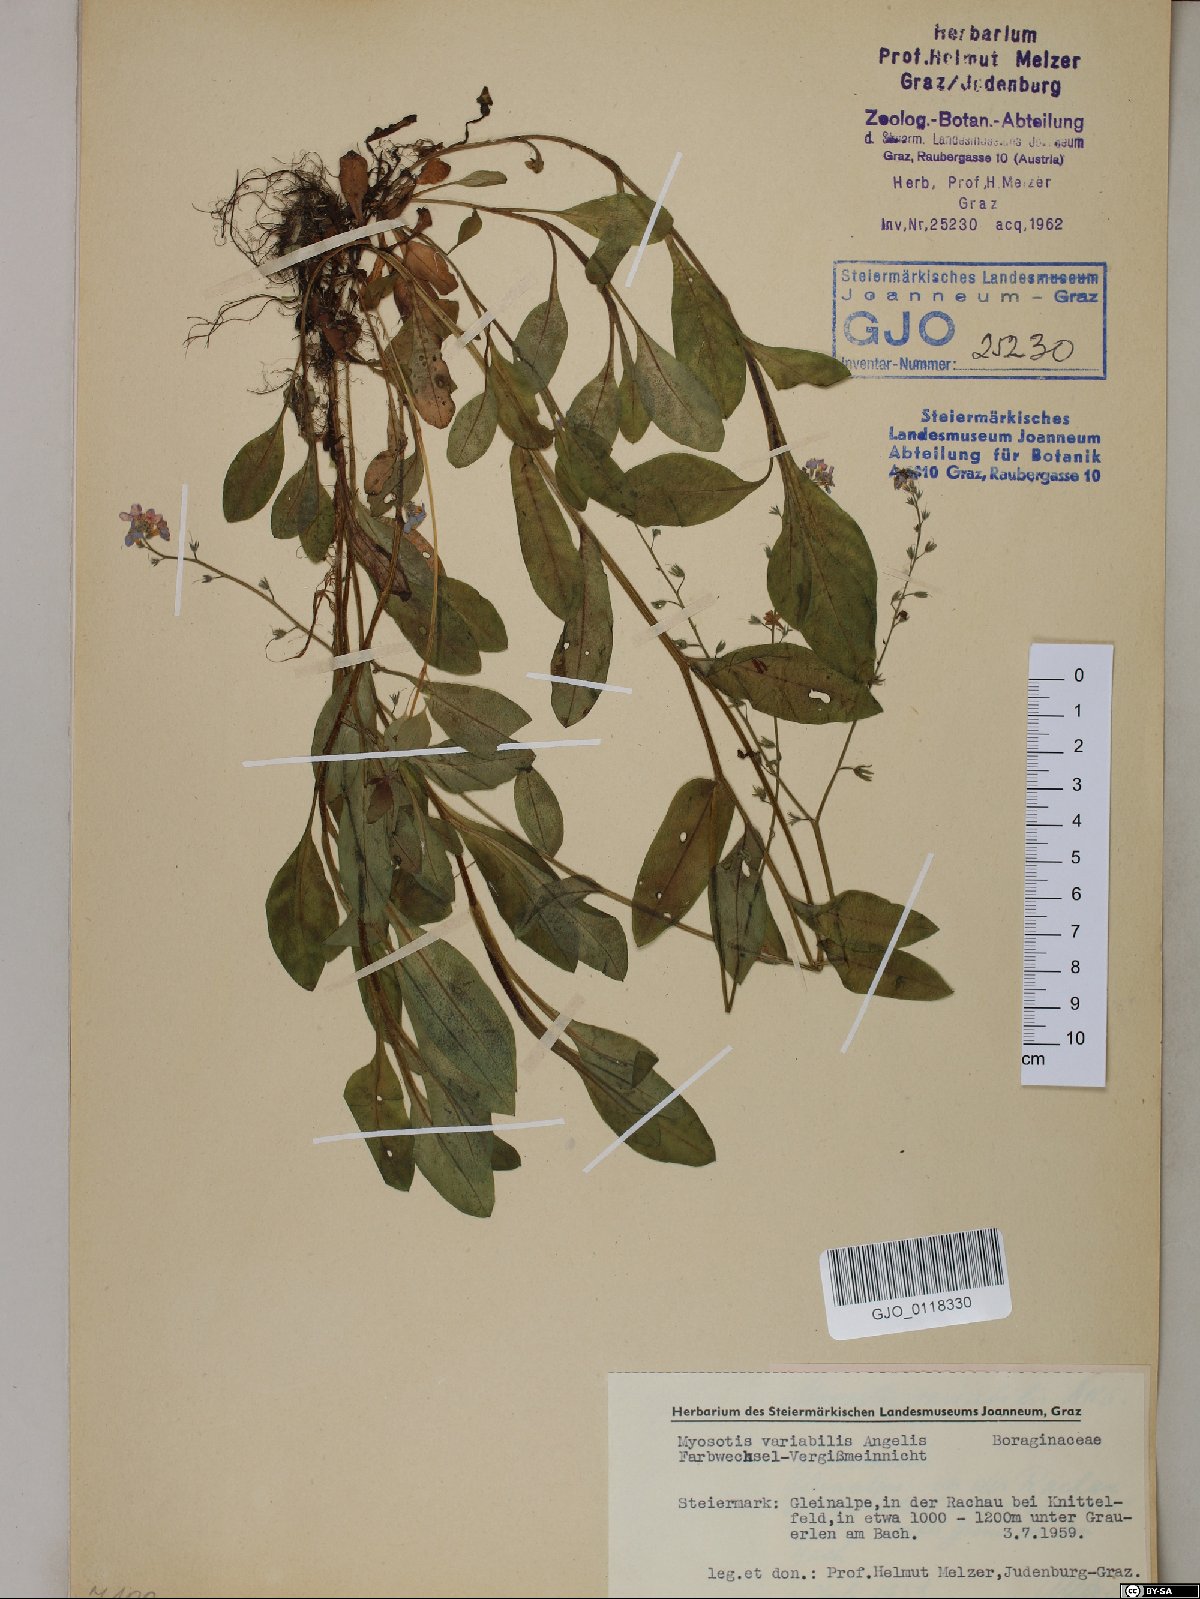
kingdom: Plantae
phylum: Tracheophyta
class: Magnoliopsida
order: Boraginales
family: Boraginaceae
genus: Myosotis
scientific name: Myosotis decumbens
